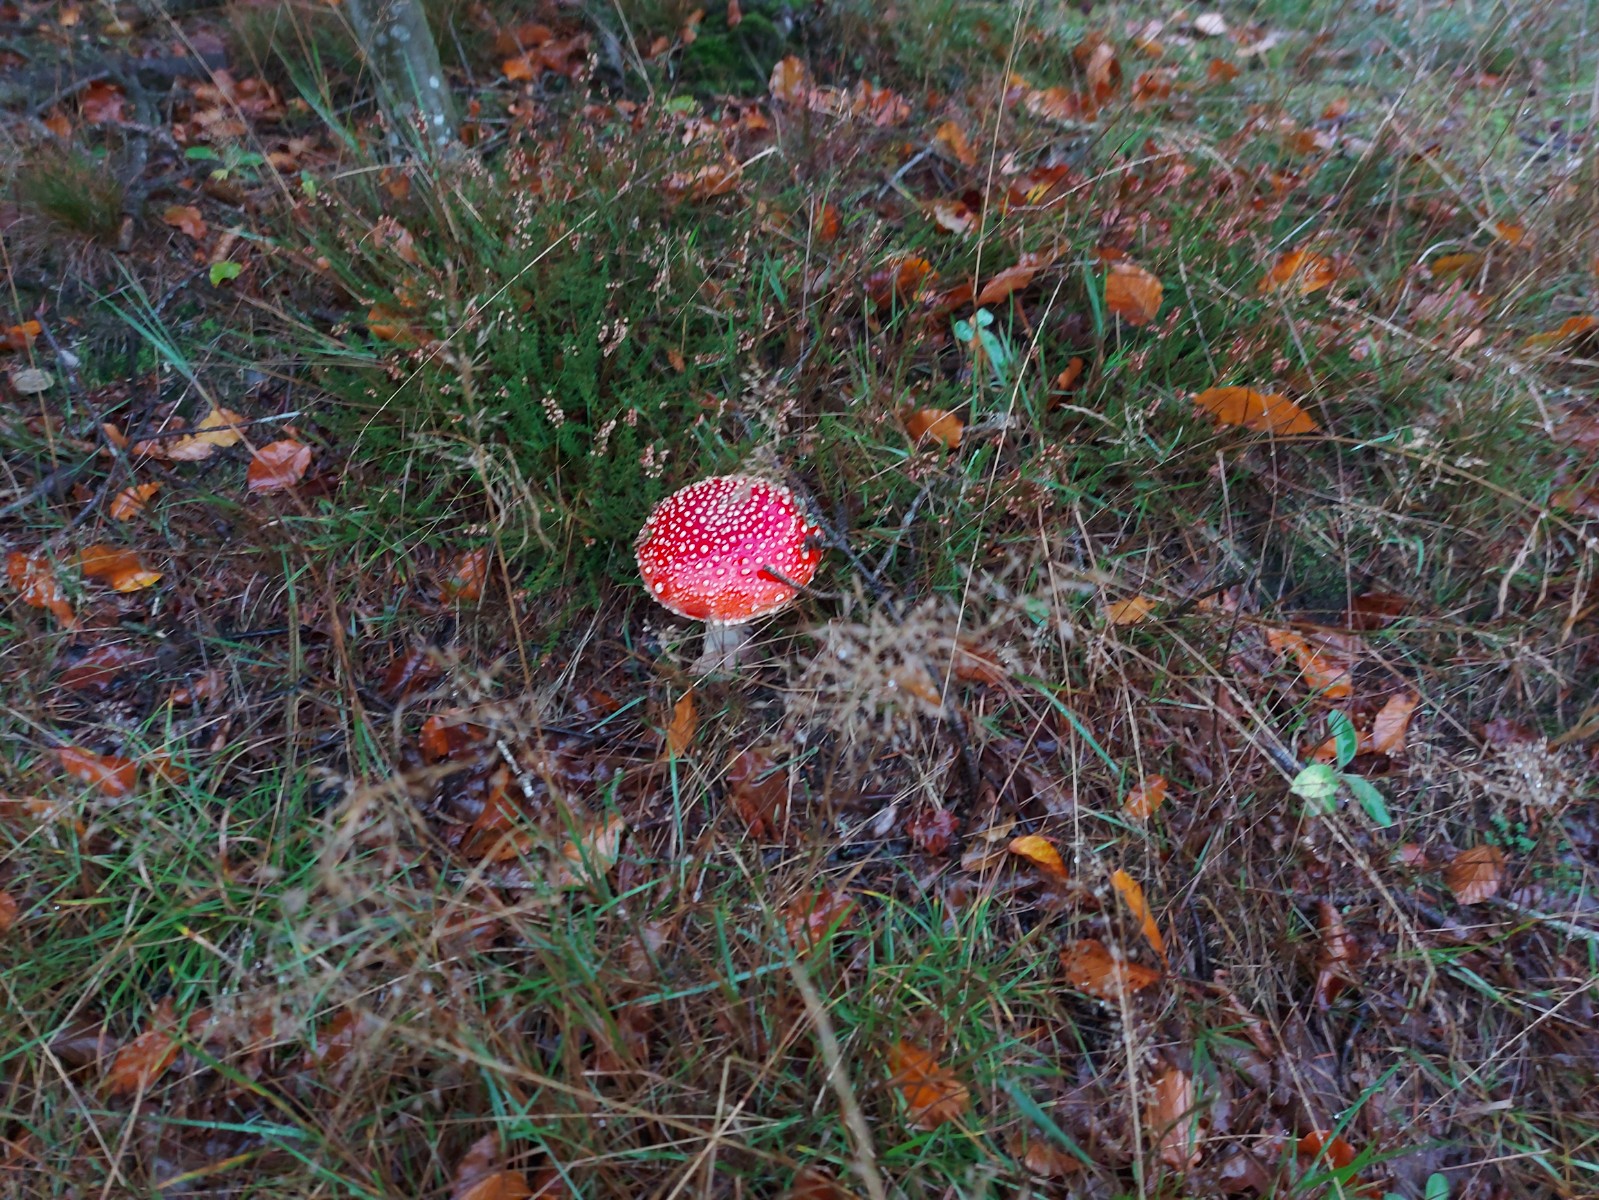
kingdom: Fungi
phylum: Basidiomycota
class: Agaricomycetes
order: Agaricales
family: Amanitaceae
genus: Amanita
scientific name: Amanita muscaria
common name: rød fluesvamp
